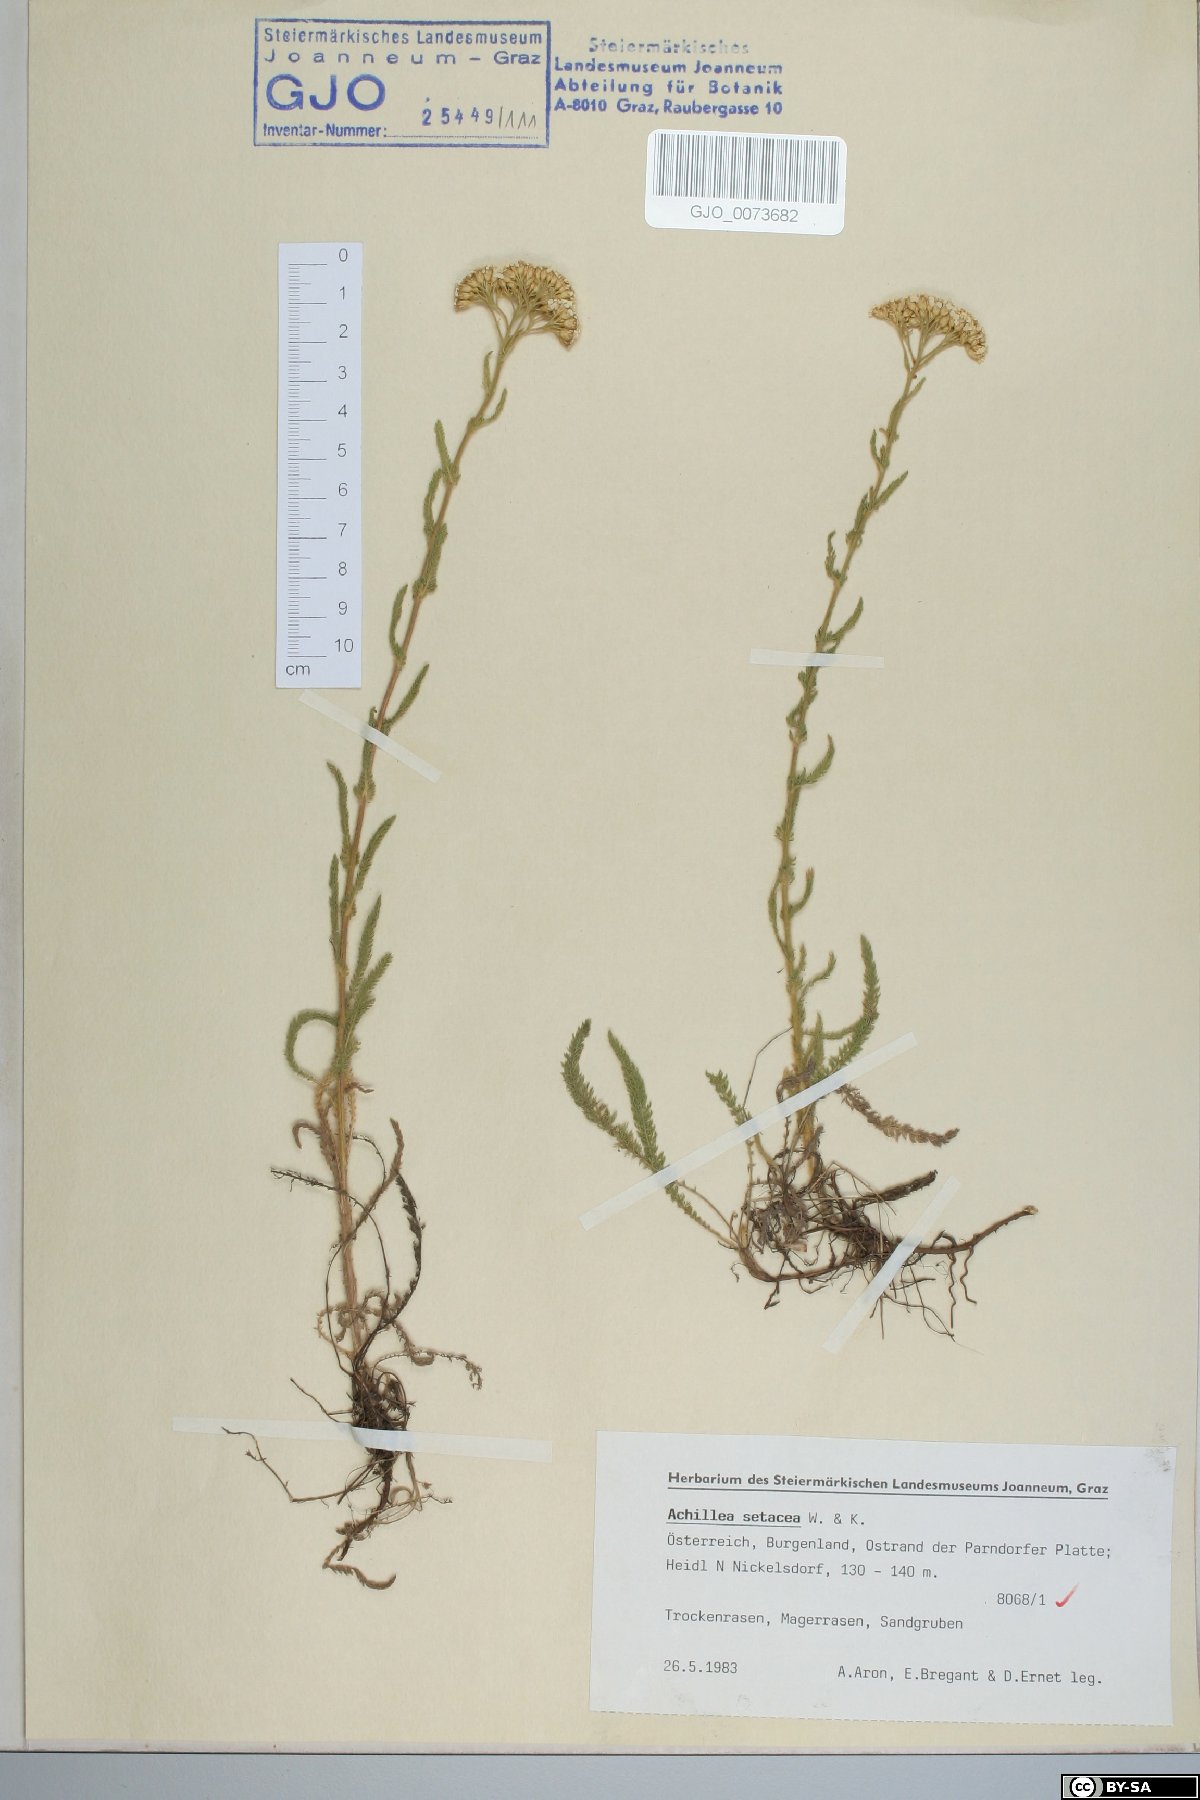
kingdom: Plantae
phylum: Tracheophyta
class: Magnoliopsida
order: Asterales
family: Asteraceae
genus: Achillea
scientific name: Achillea setacea
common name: Bristly yarrow
